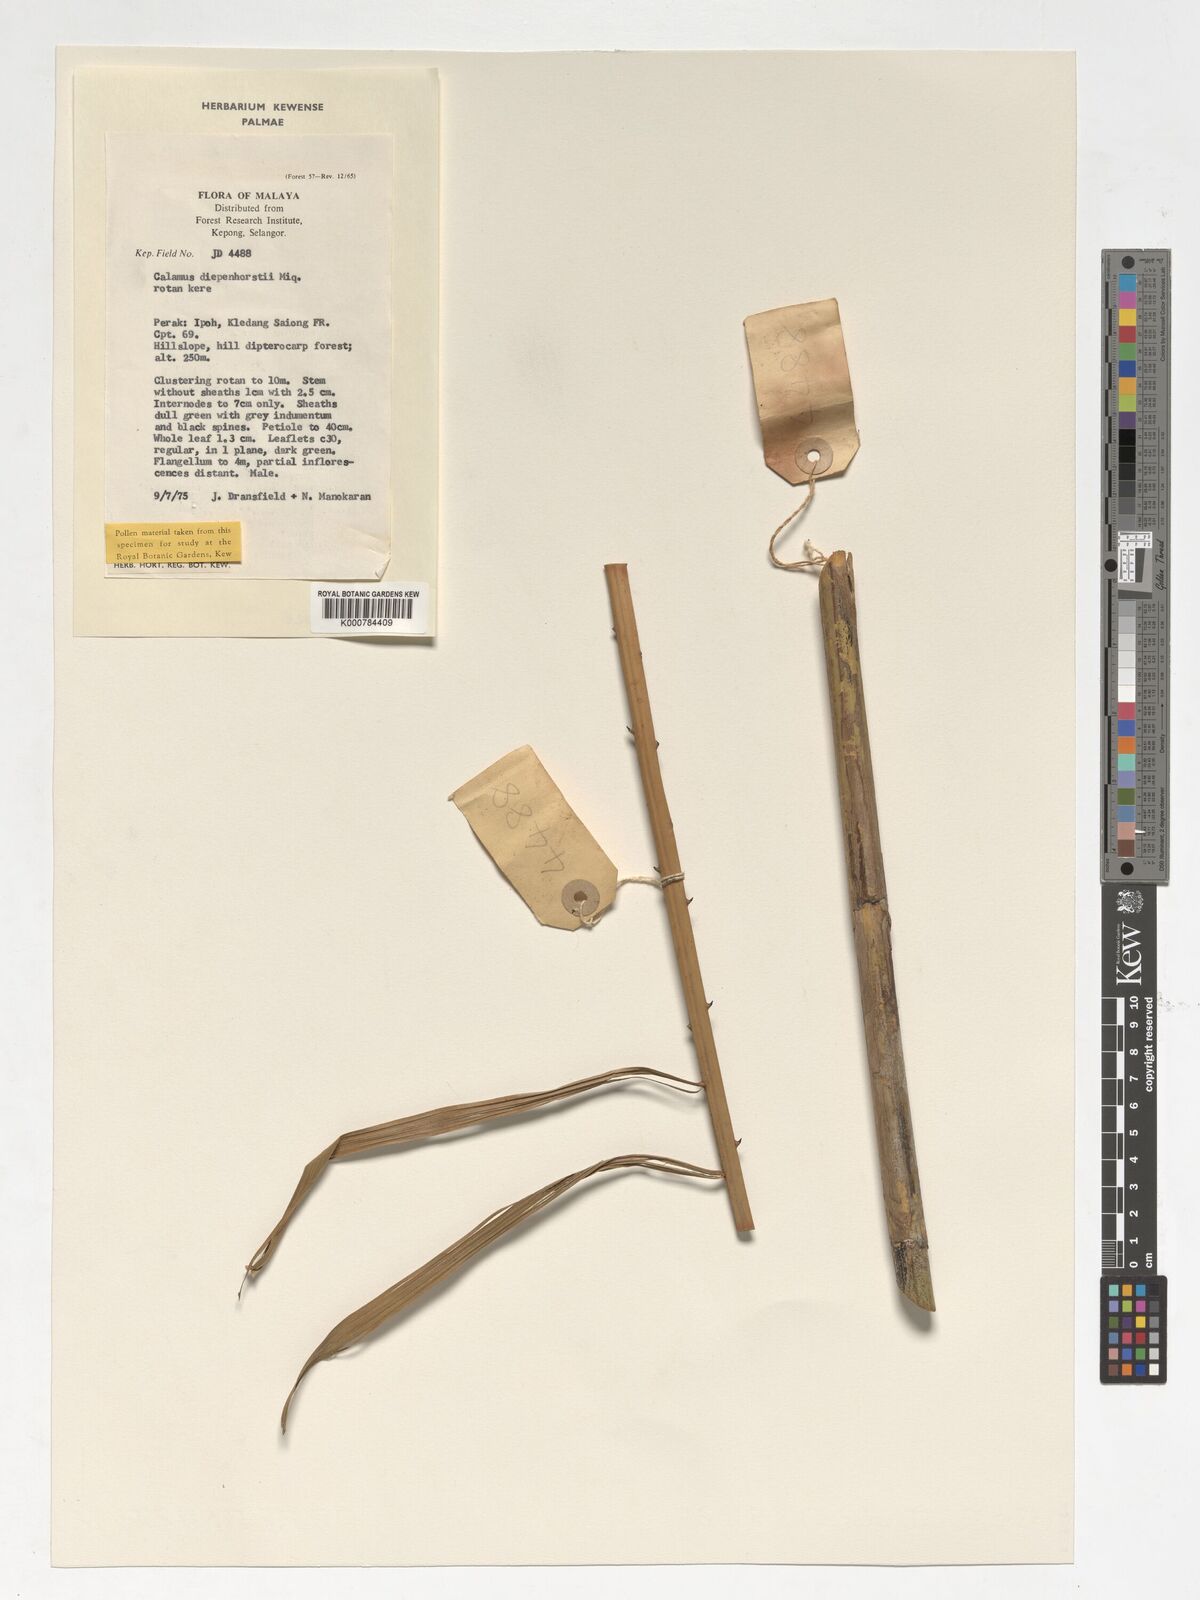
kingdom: Plantae
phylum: Tracheophyta
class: Liliopsida
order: Arecales
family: Arecaceae
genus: Calamus
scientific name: Calamus diepenhorstii
